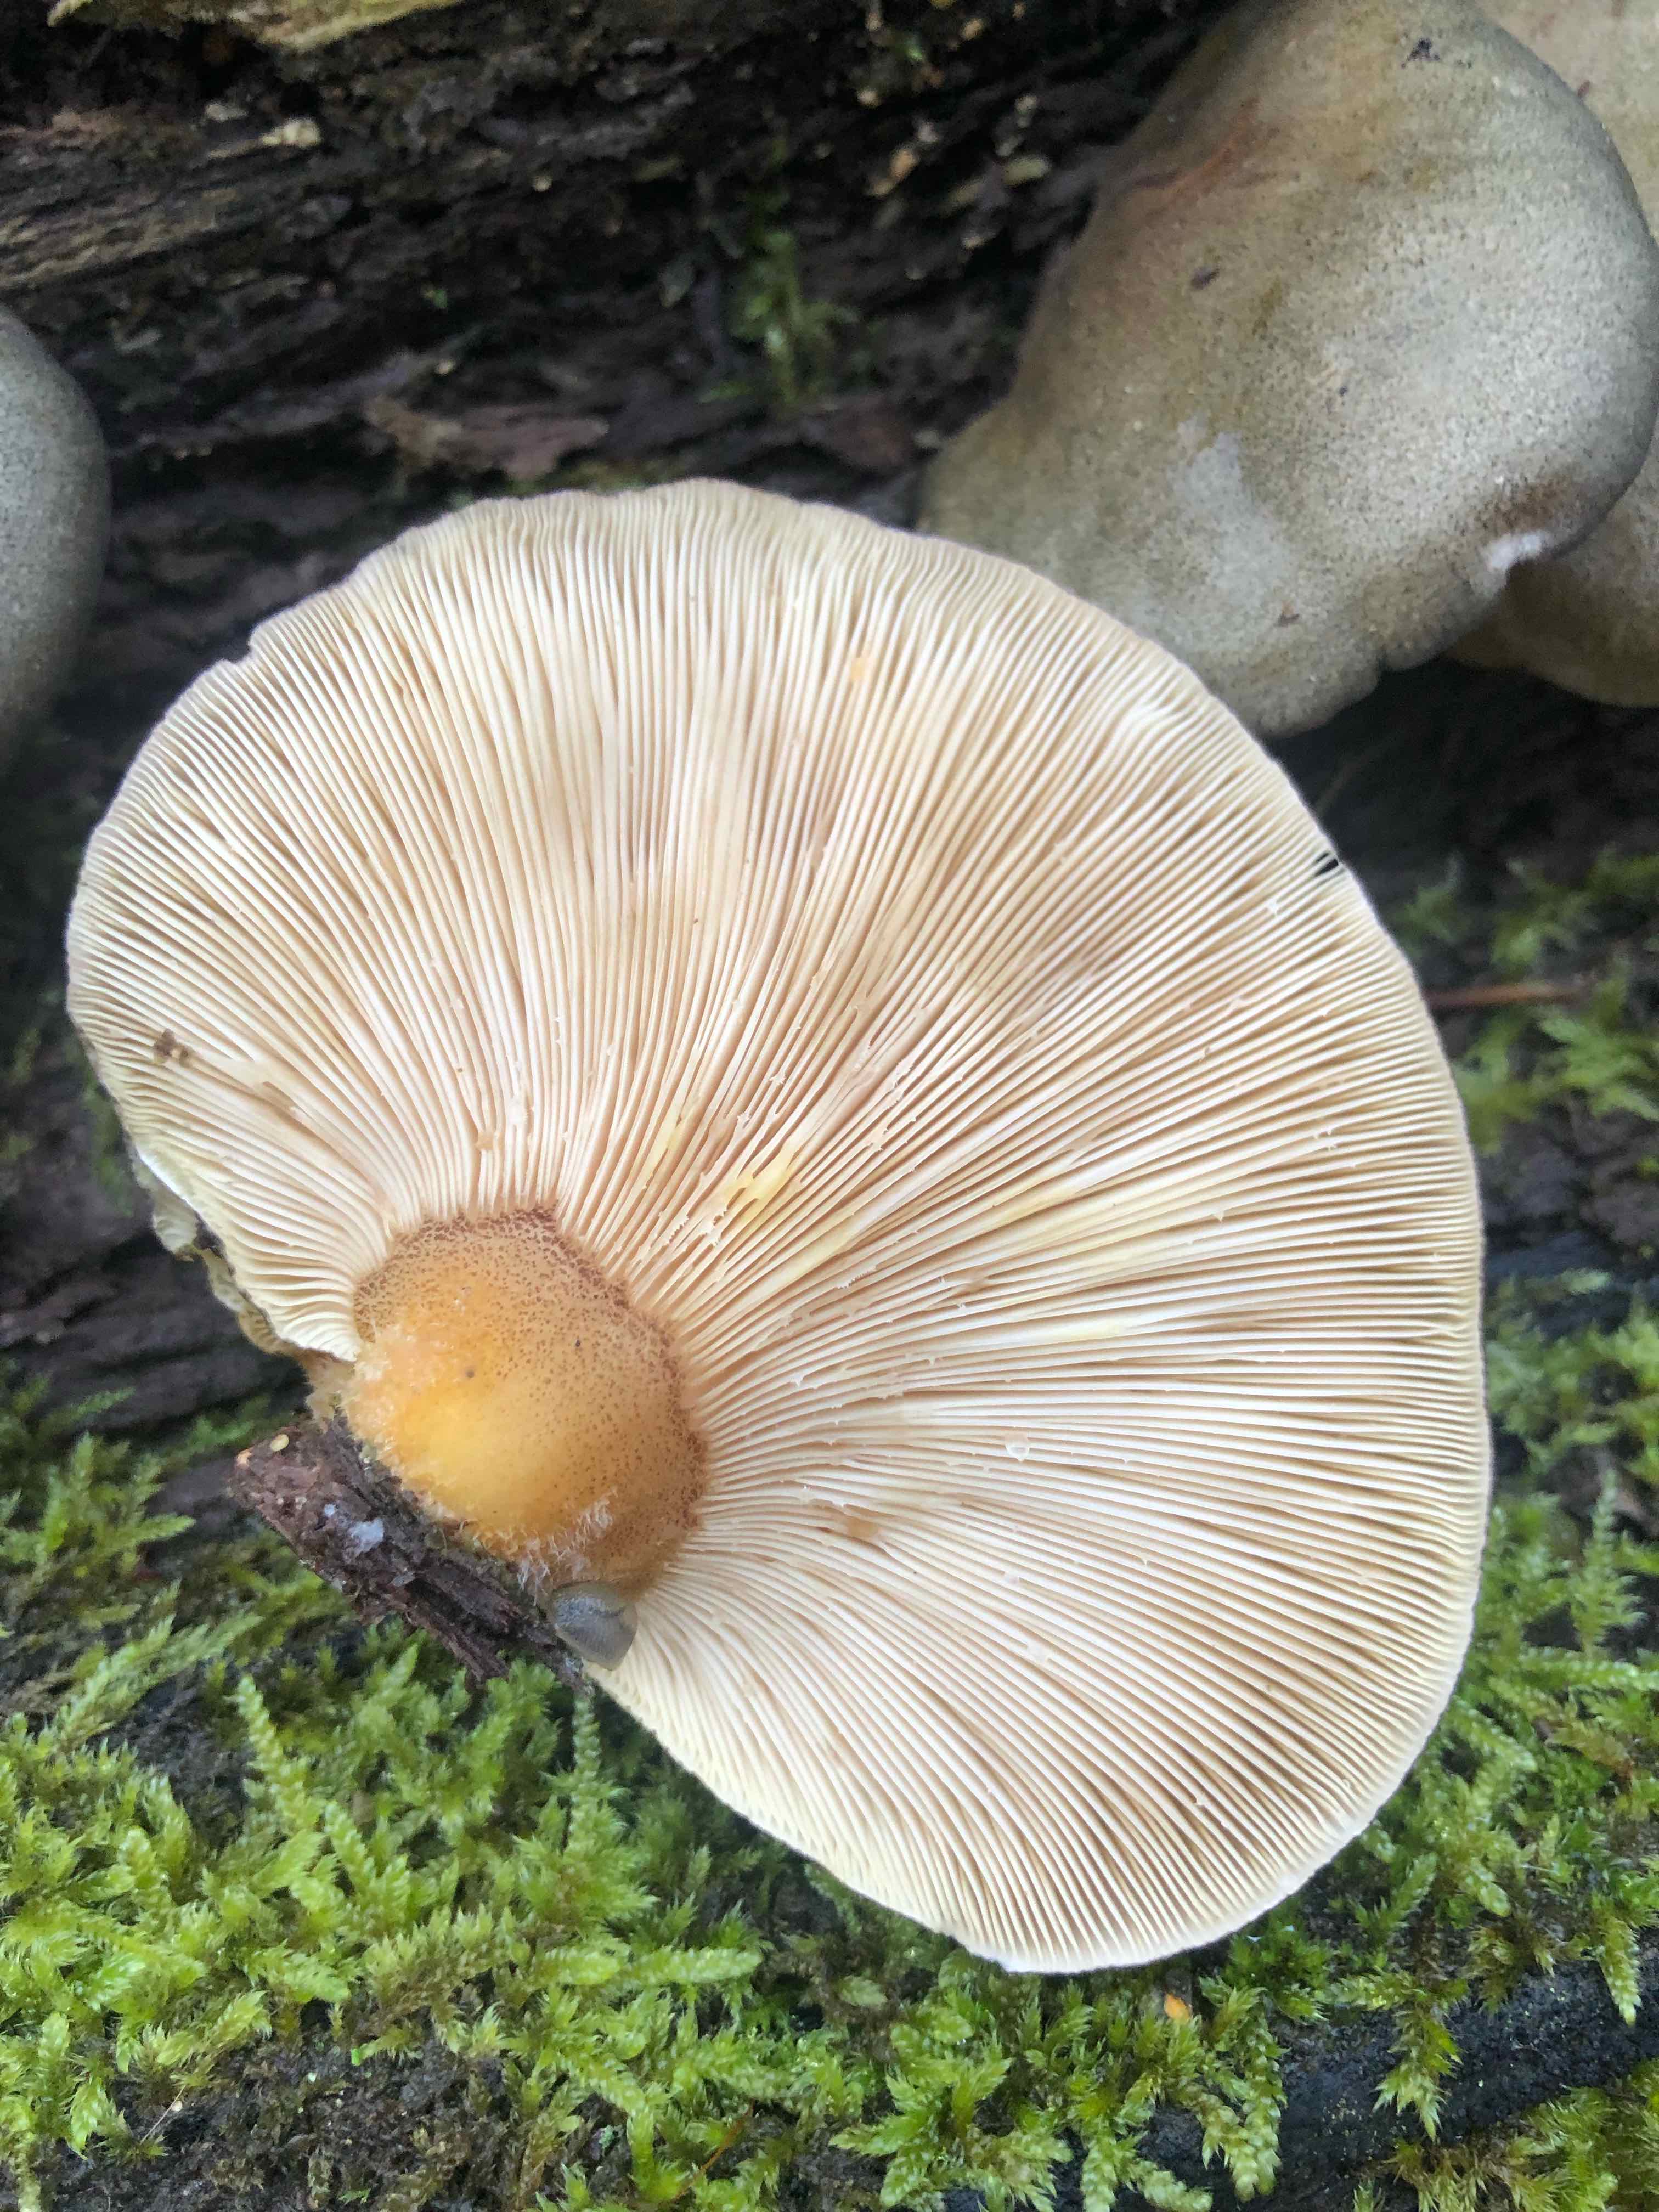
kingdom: Fungi
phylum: Basidiomycota
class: Agaricomycetes
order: Agaricales
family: Sarcomyxaceae
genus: Sarcomyxa
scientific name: Sarcomyxa serotina
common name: gummihat
